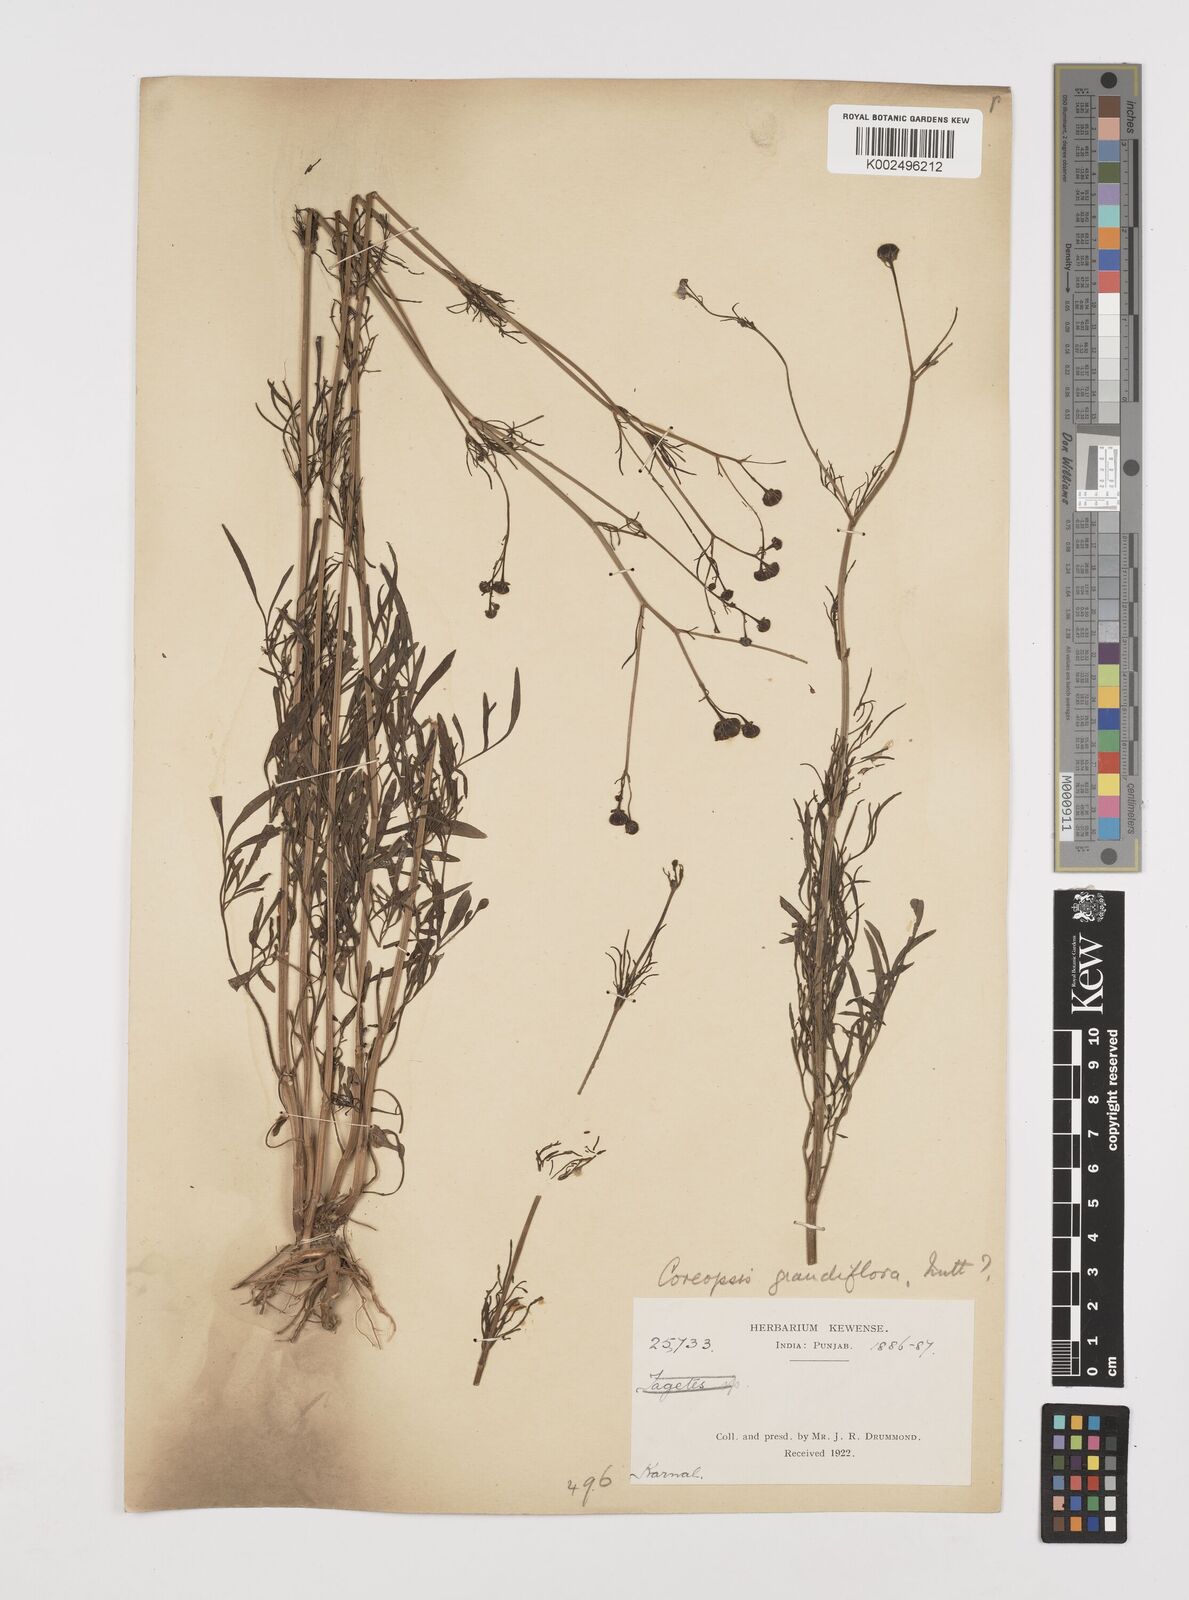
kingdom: Plantae
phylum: Tracheophyta
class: Magnoliopsida
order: Asterales
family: Asteraceae
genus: Coreopsis
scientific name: Coreopsis tinctoria
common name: Garden tickseed
